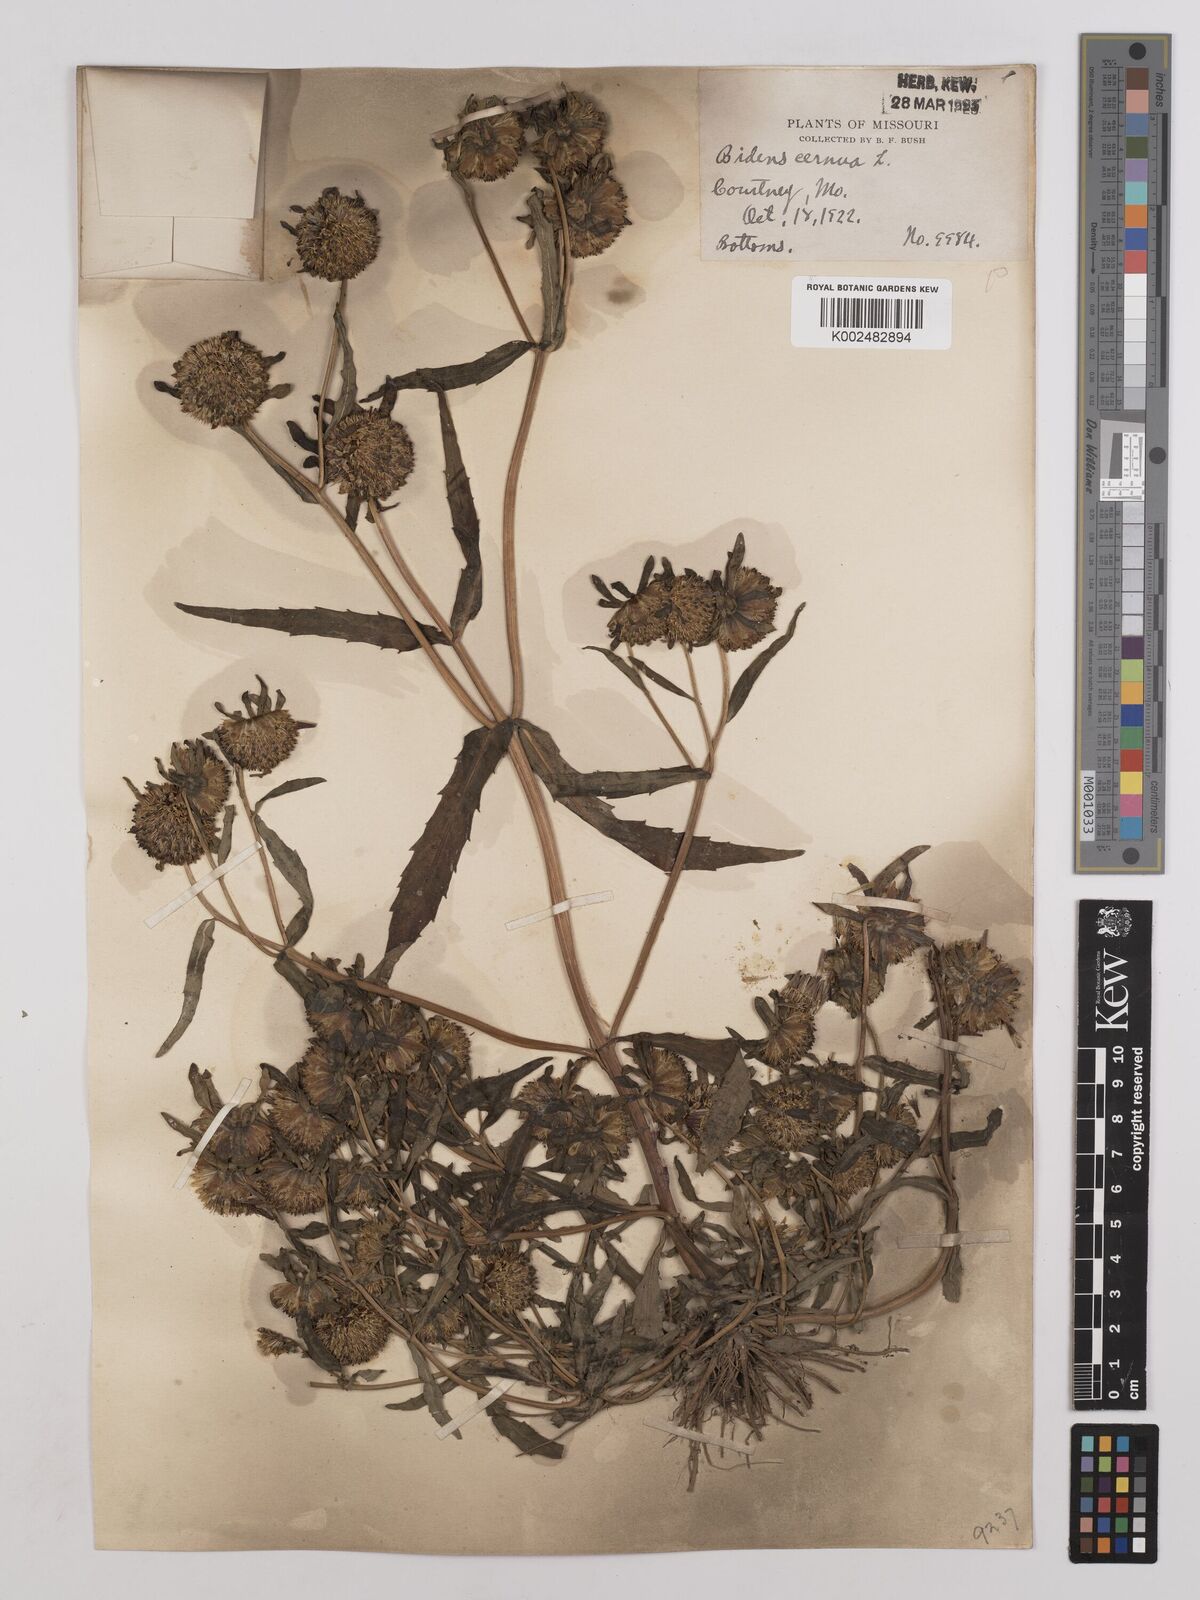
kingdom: Plantae
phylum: Tracheophyta
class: Magnoliopsida
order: Asterales
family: Asteraceae
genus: Bidens
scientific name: Bidens
